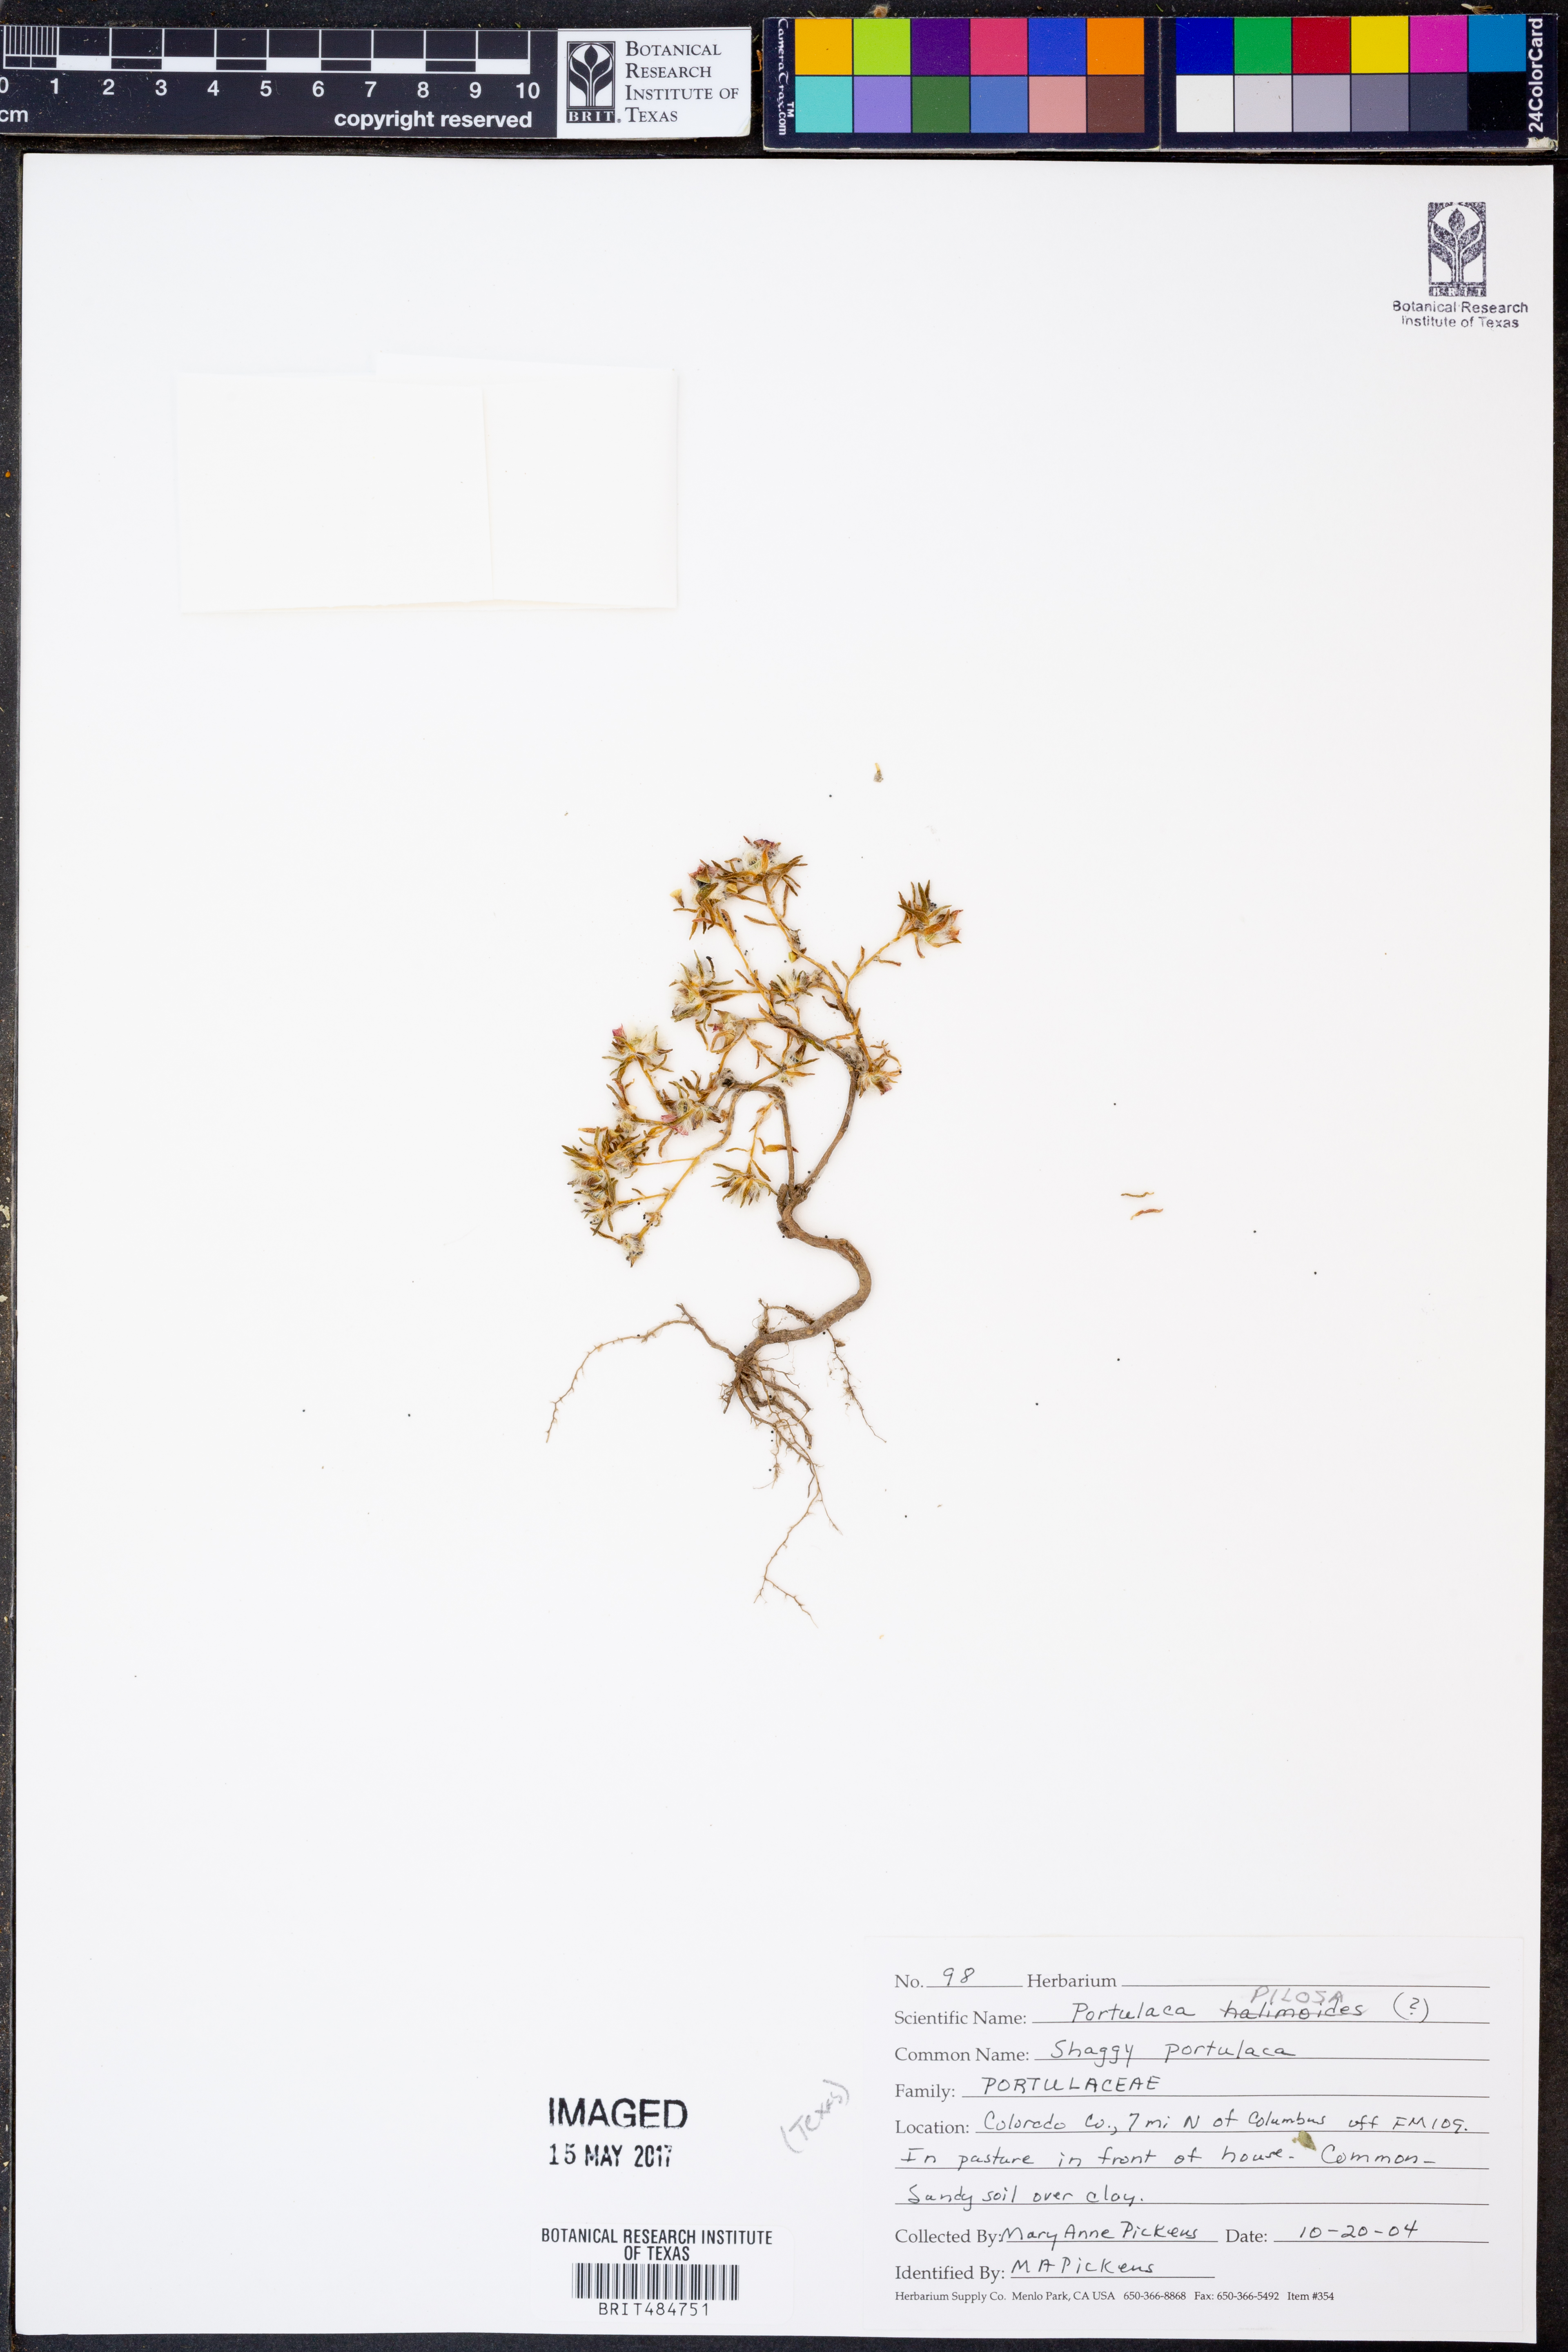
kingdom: Plantae
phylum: Tracheophyta
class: Magnoliopsida
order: Caryophyllales
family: Portulacaceae
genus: Portulaca
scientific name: Portulaca pilosa
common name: Kiss me quick
